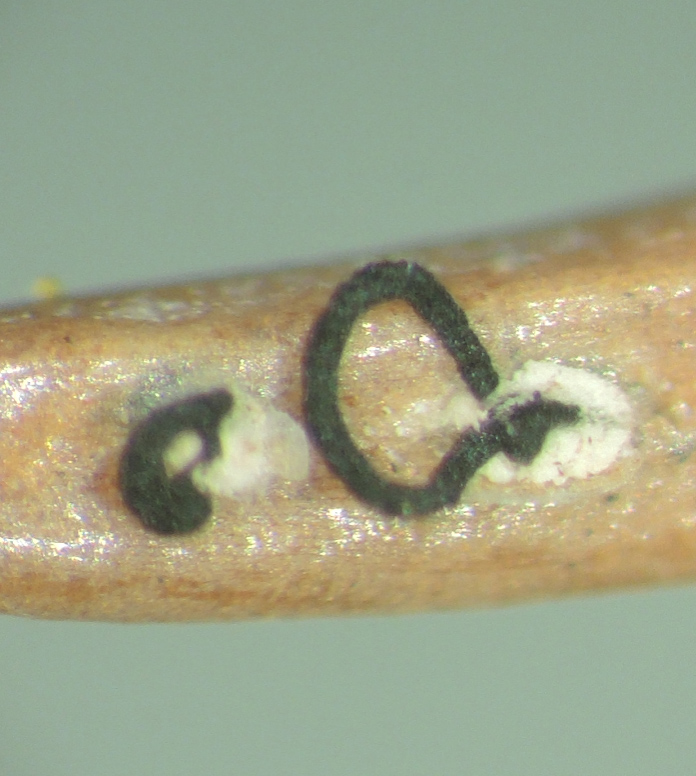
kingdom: Fungi
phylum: Ascomycota
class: Sordariomycetes
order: Amphisphaeriales
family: Pestalotiopsidaceae
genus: Pestalotiopsis
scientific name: Pestalotiopsis funerea
